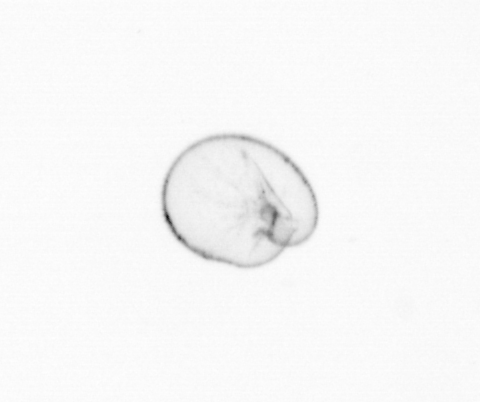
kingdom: Chromista
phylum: Myzozoa
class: Dinophyceae
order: Noctilucales
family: Noctilucaceae
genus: Noctiluca
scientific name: Noctiluca scintillans
